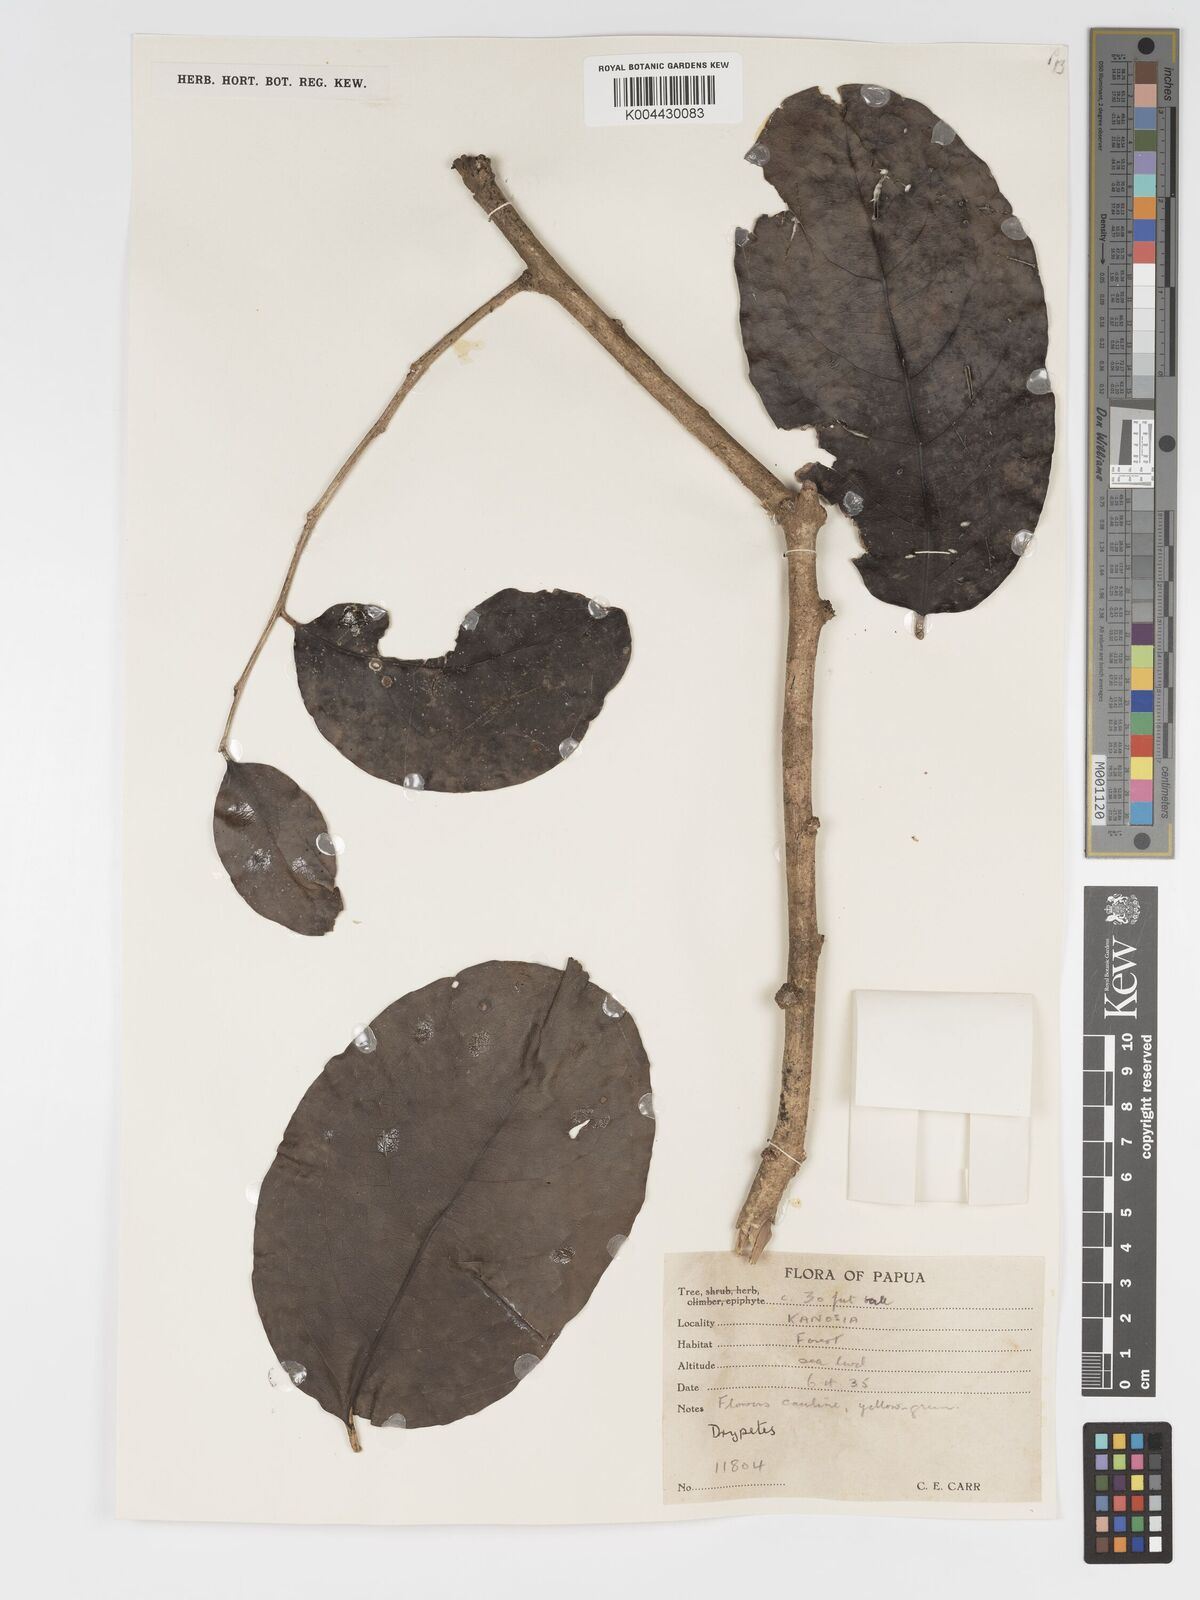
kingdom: Plantae
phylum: Tracheophyta
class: Magnoliopsida
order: Malpighiales
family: Putranjivaceae
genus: Drypetes
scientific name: Drypetes longifolia
